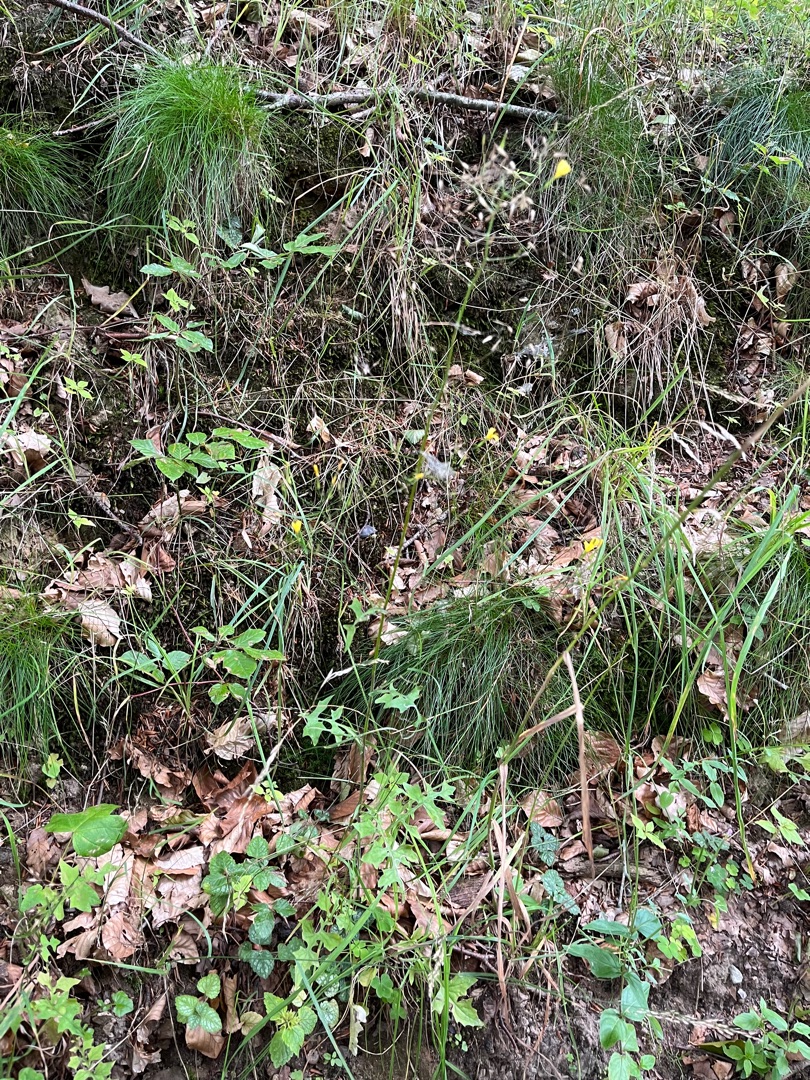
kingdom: Plantae
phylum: Tracheophyta
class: Magnoliopsida
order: Asterales
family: Asteraceae
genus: Mycelis
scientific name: Mycelis muralis
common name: Skov-salat
